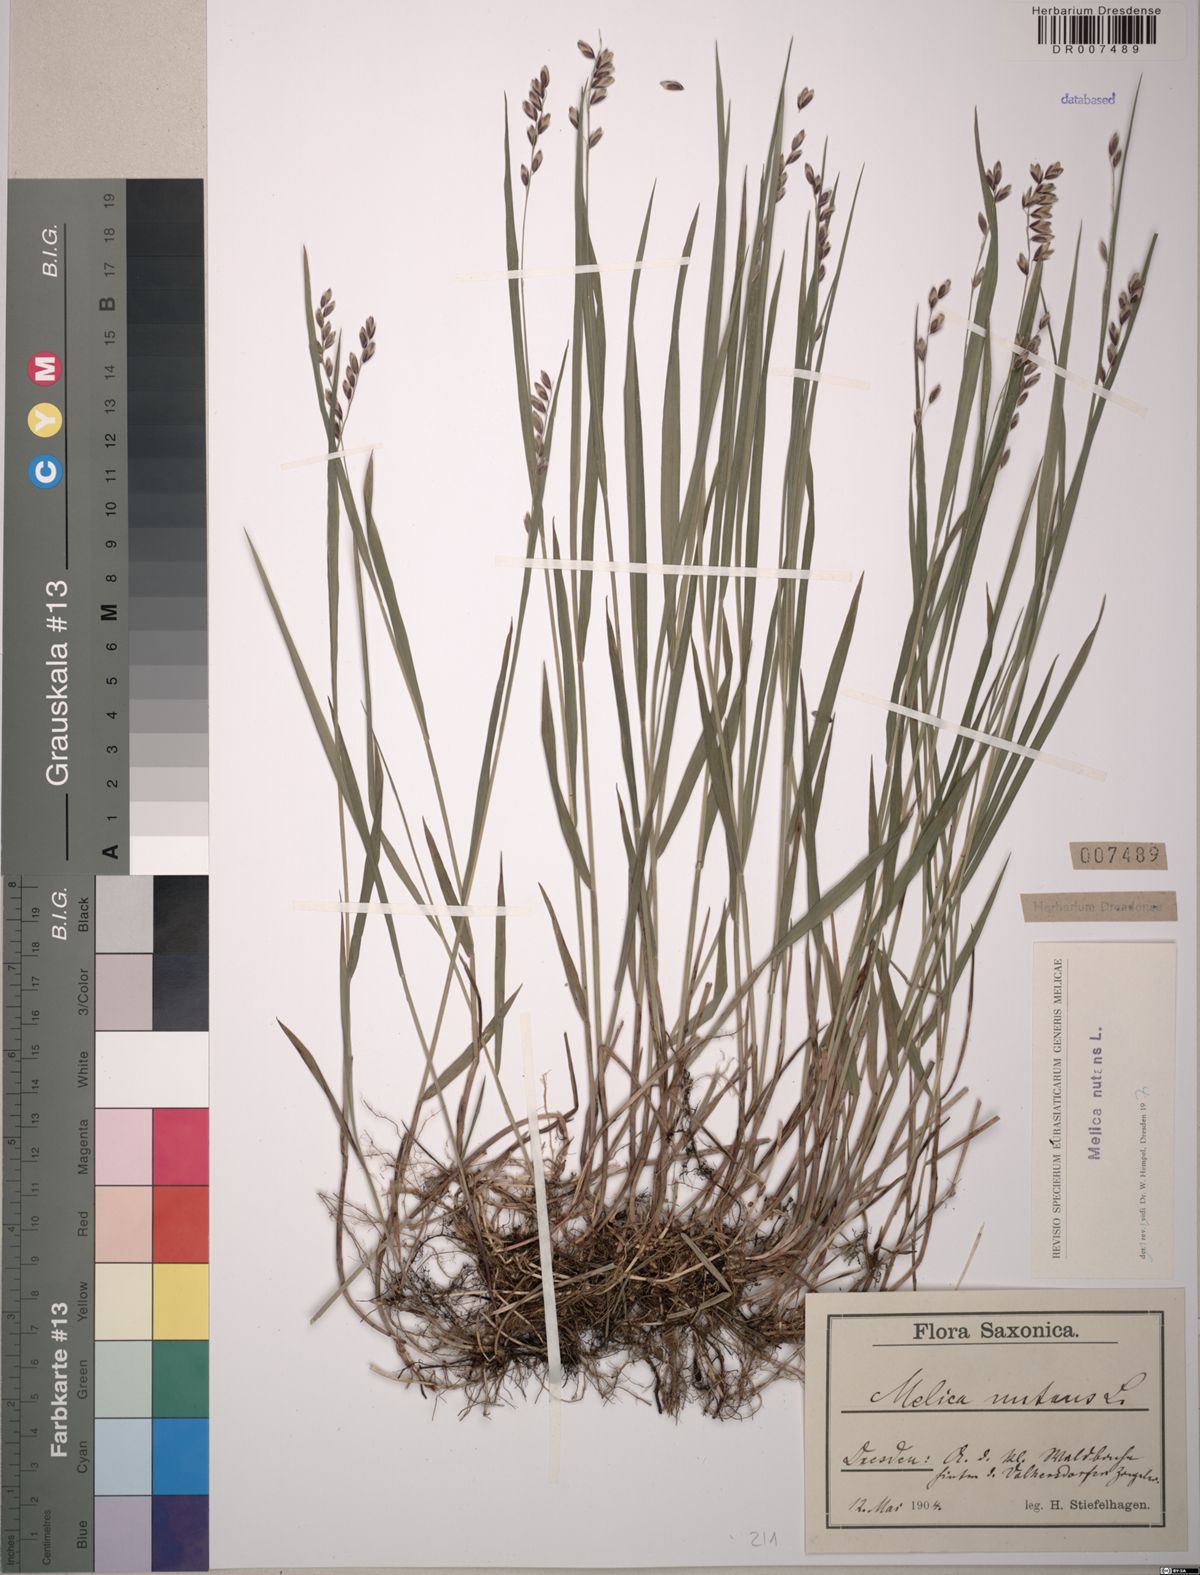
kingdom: Plantae
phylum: Tracheophyta
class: Liliopsida
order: Poales
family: Poaceae
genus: Melica
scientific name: Melica nutans
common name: Mountain melick
